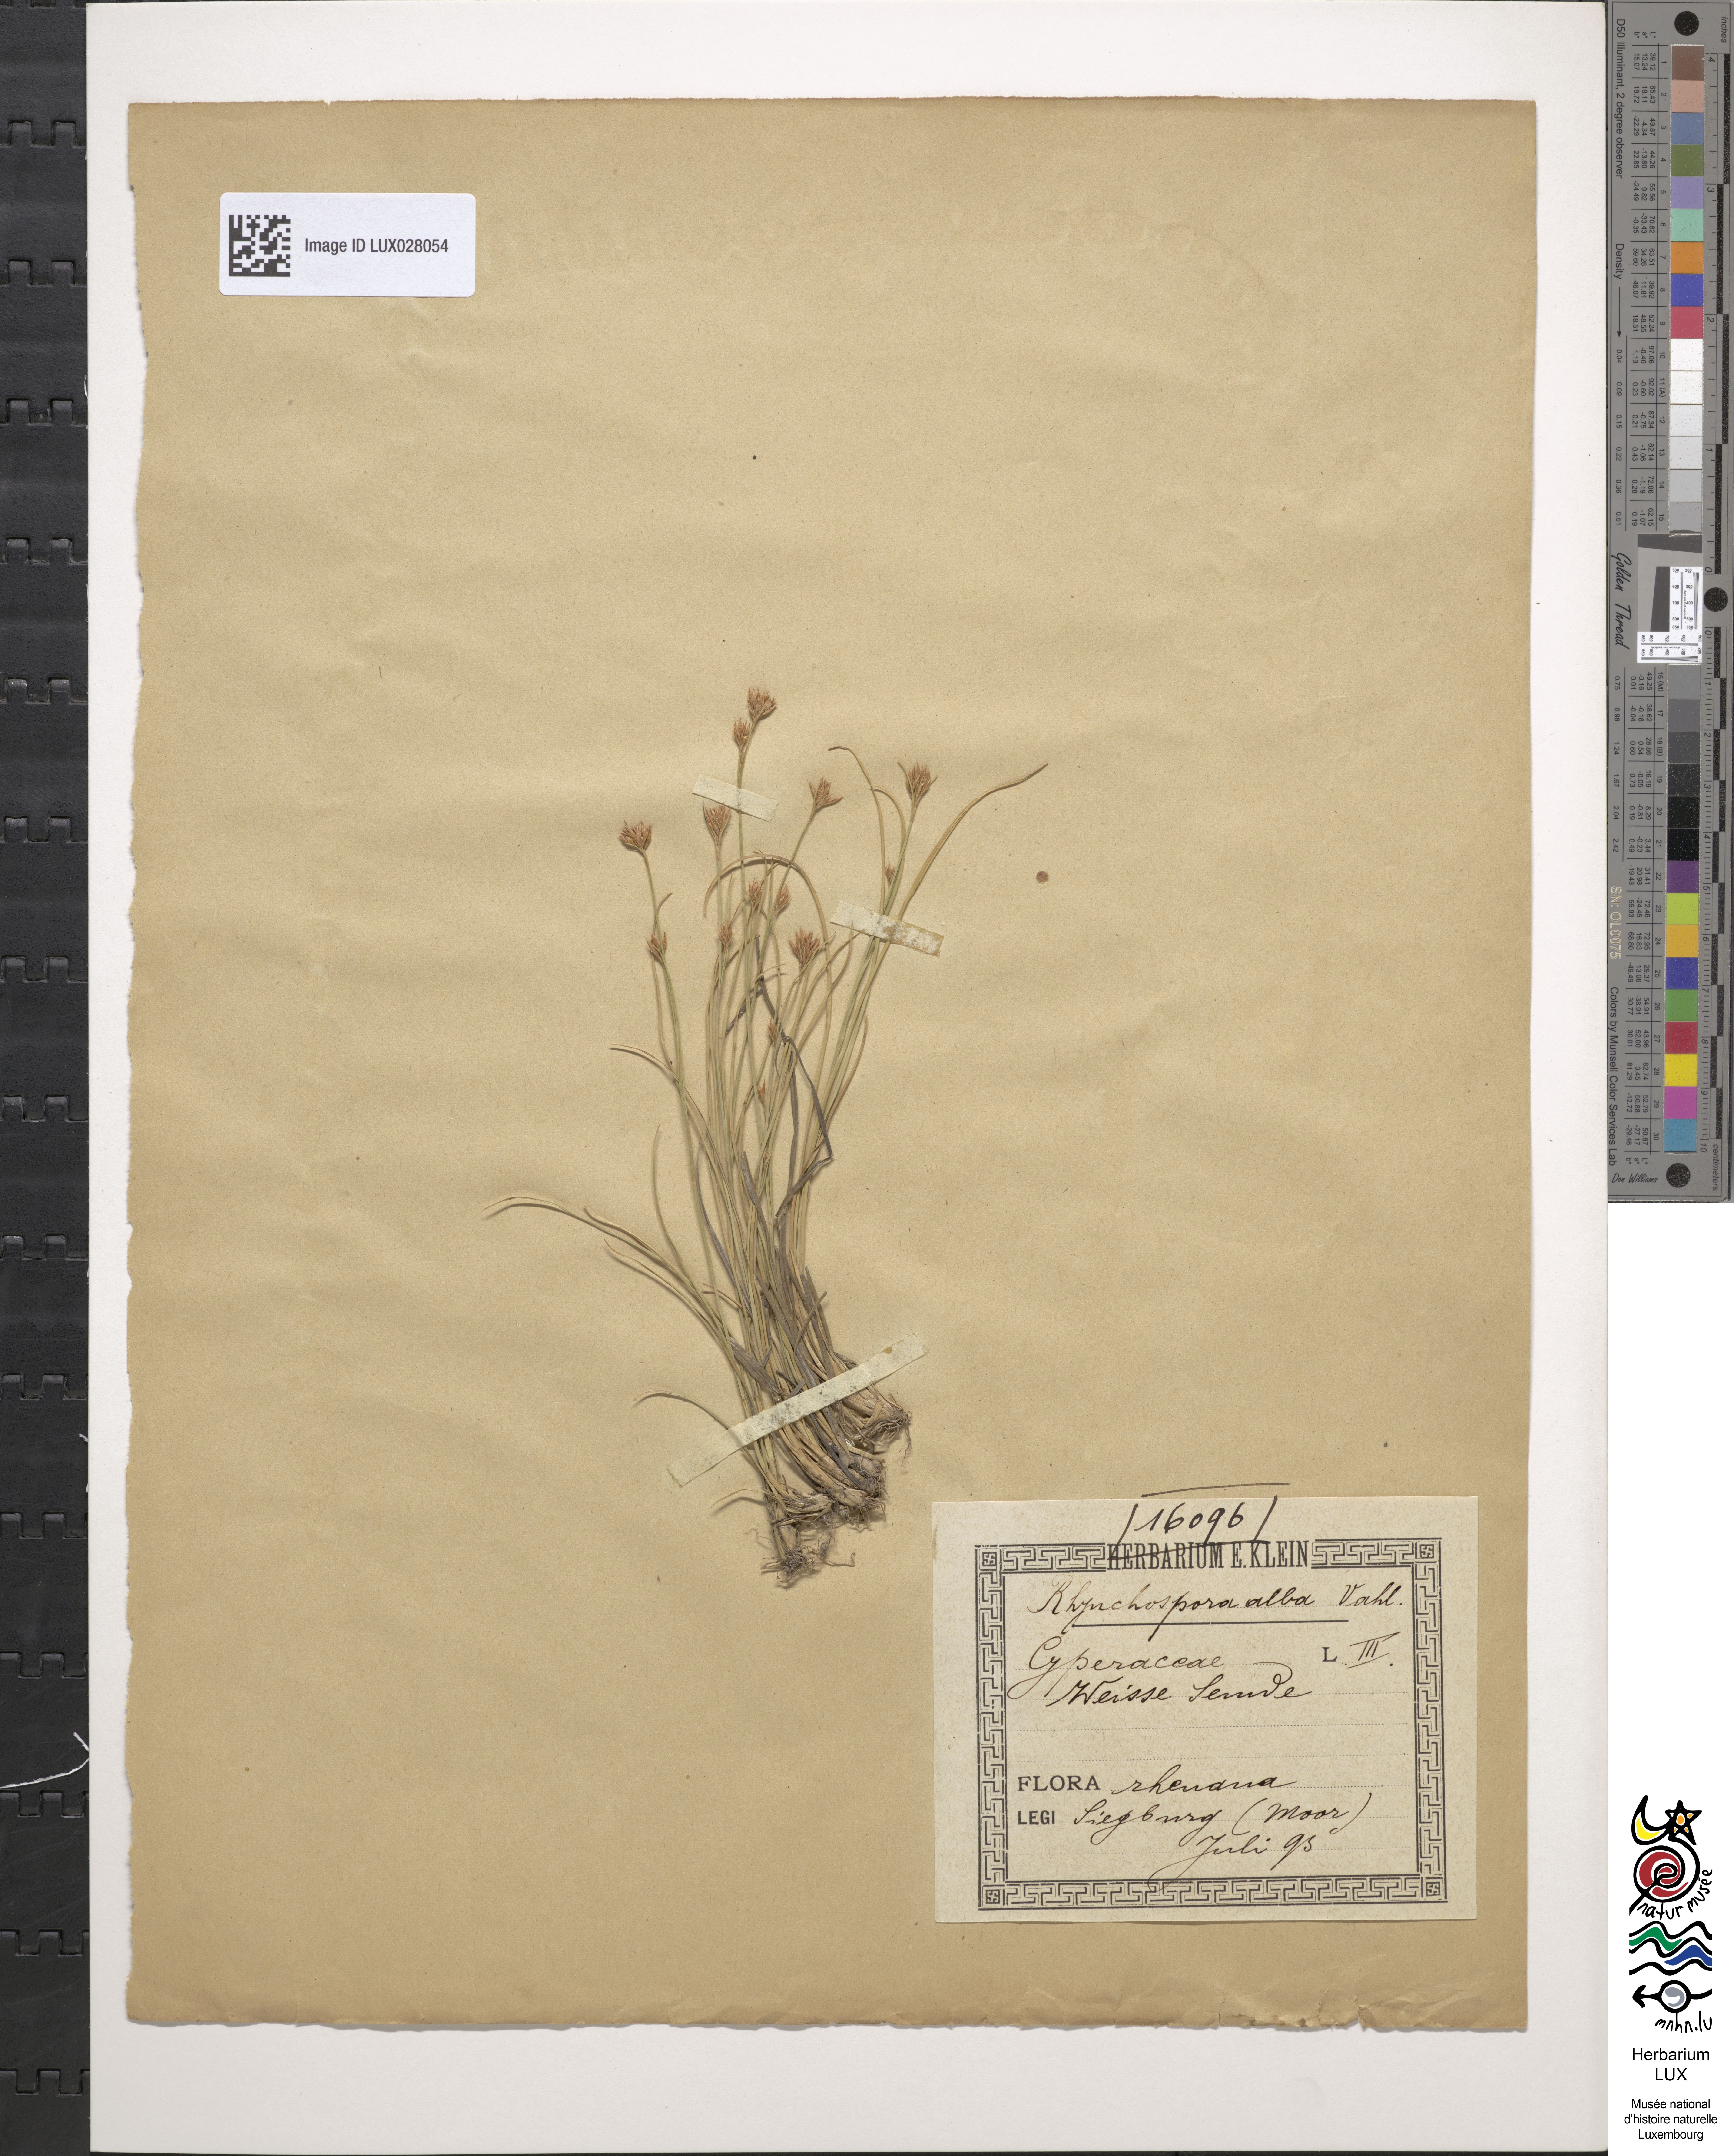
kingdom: Plantae
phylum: Tracheophyta
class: Liliopsida
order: Poales
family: Cyperaceae
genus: Rhynchospora
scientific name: Rhynchospora alba
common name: White beak-sedge
